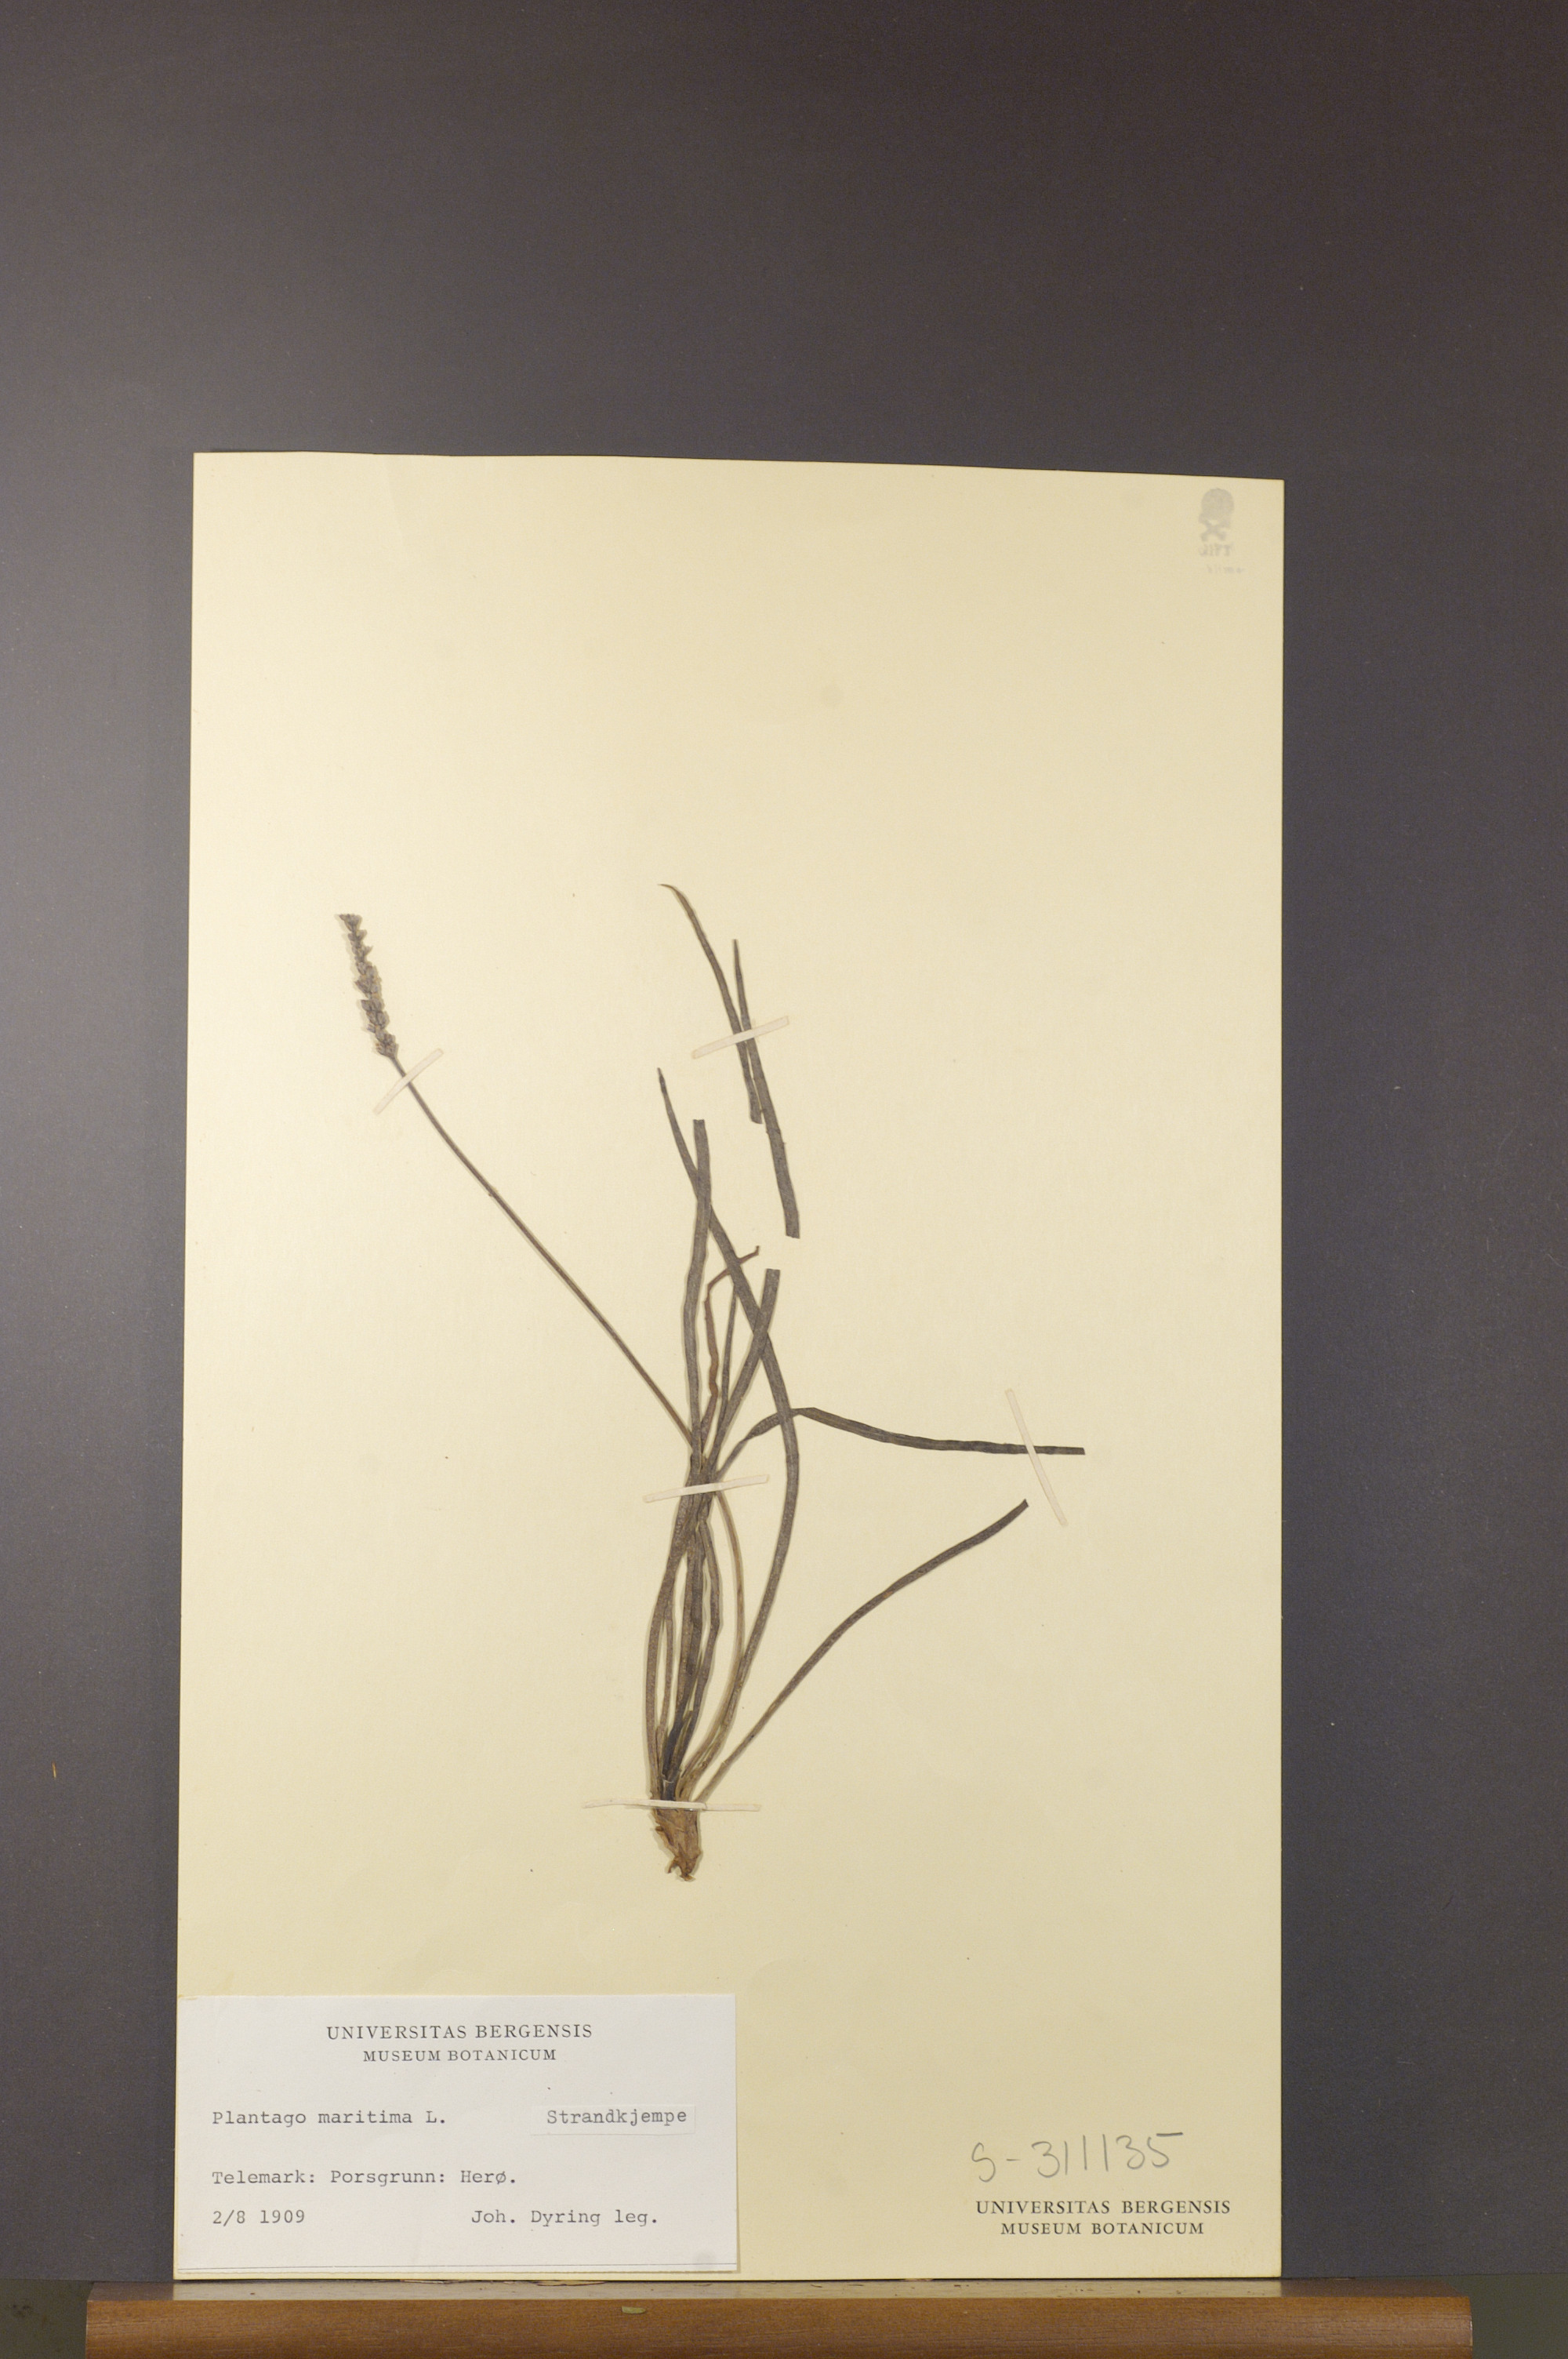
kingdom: Plantae
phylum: Tracheophyta
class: Magnoliopsida
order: Lamiales
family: Plantaginaceae
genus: Plantago
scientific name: Plantago maritima
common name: Sea plantain
